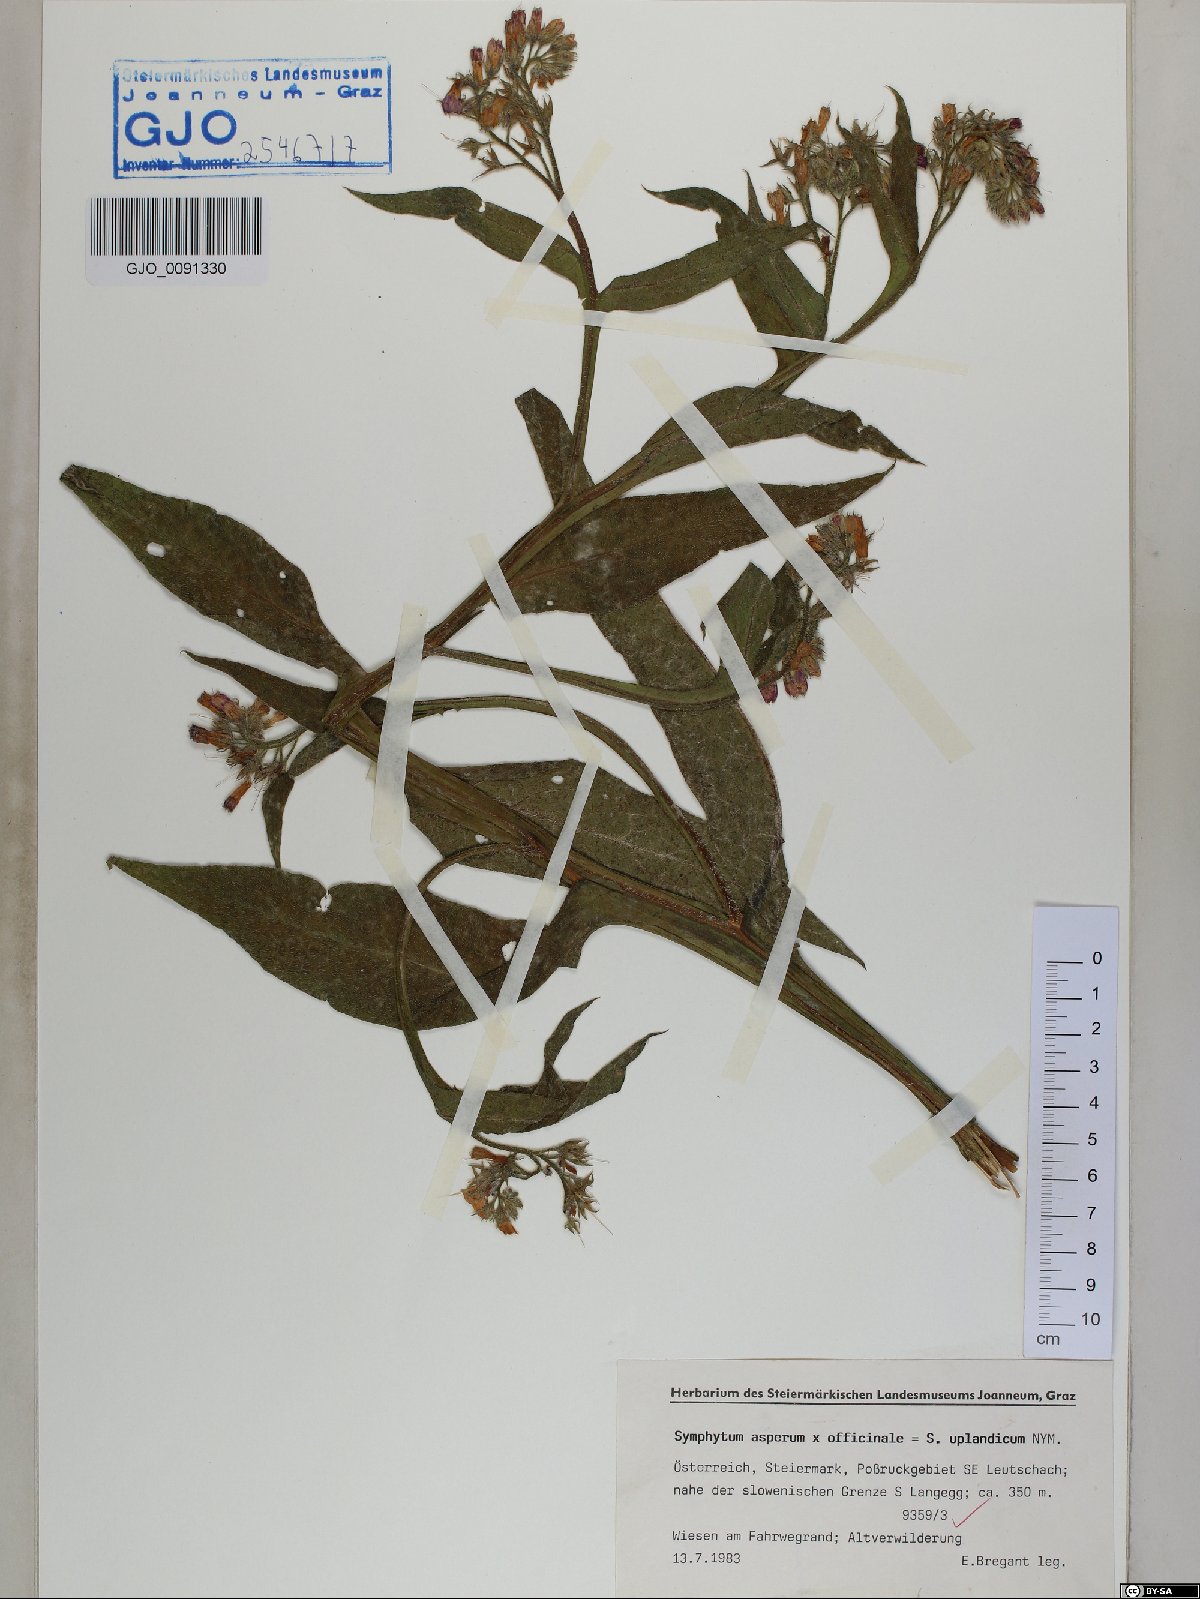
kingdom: Plantae
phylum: Tracheophyta
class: Magnoliopsida
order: Boraginales
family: Boraginaceae
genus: Symphytum
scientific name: Symphytum uplandicum
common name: Russian comfrey
